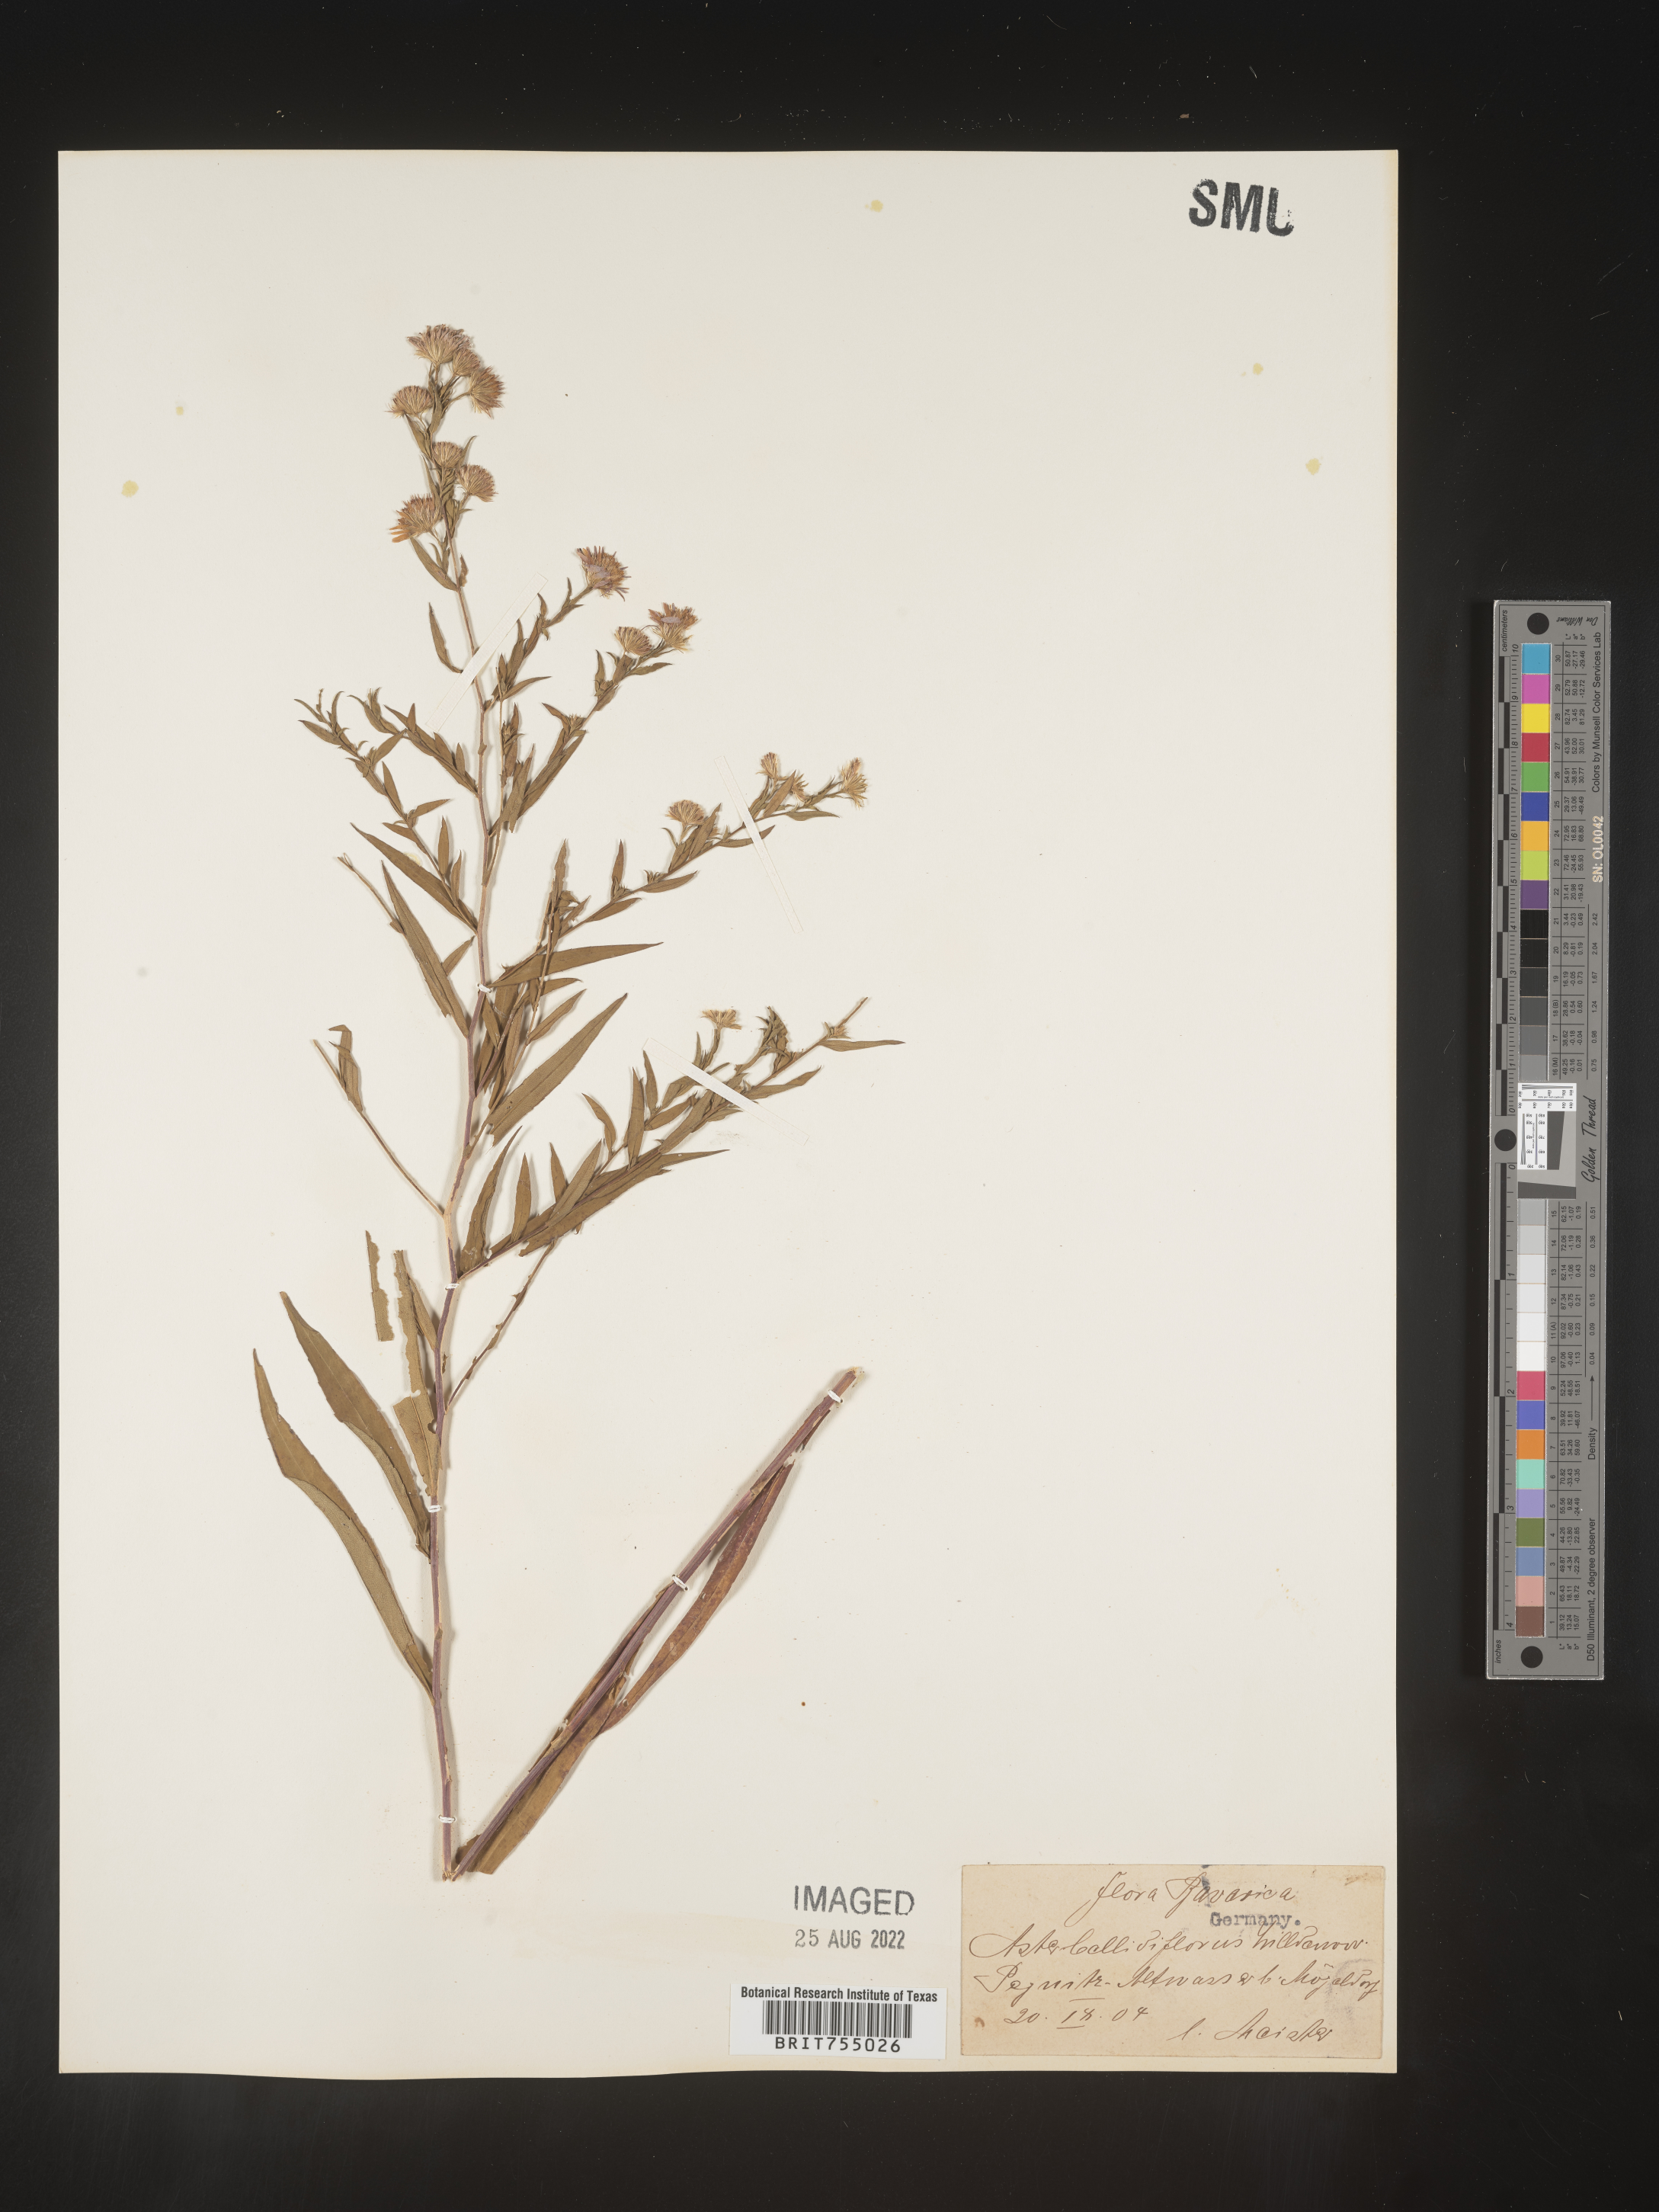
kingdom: Plantae
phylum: Tracheophyta
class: Magnoliopsida
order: Asterales
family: Asteraceae
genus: Symphyotrichum
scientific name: Symphyotrichum
